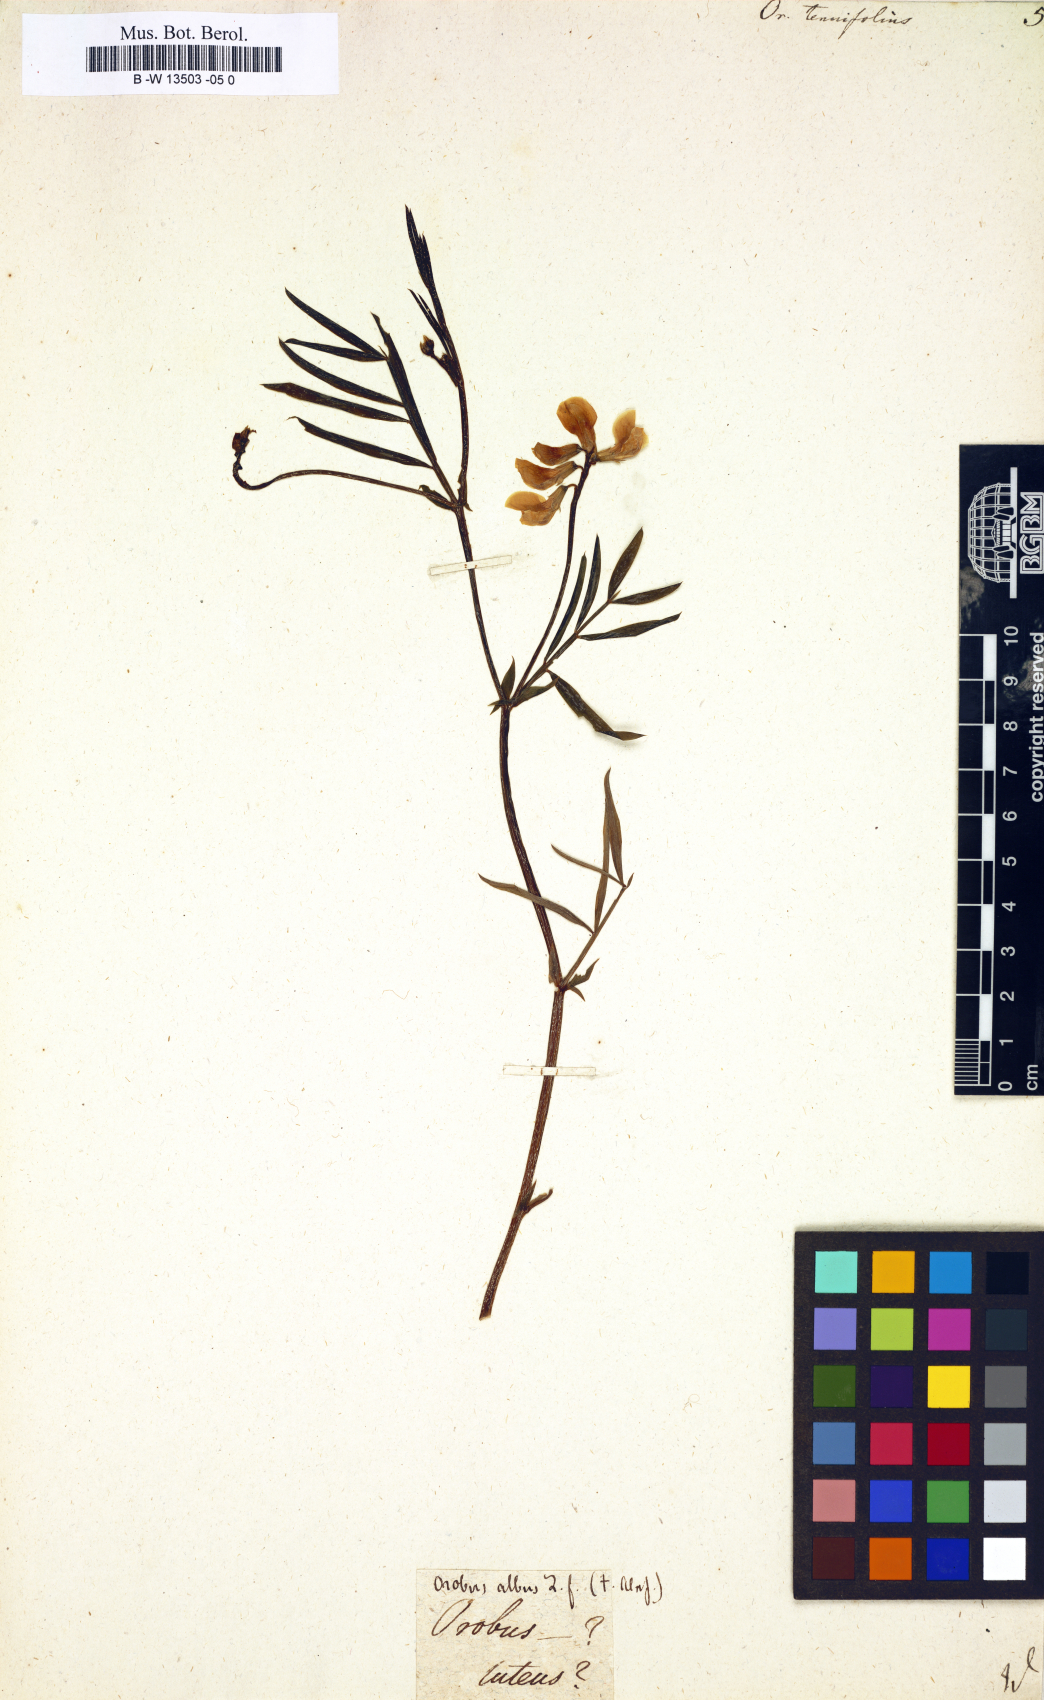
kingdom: Plantae
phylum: Tracheophyta
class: Magnoliopsida
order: Fabales
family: Fabaceae
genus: Lathyrus
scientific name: Lathyrus
